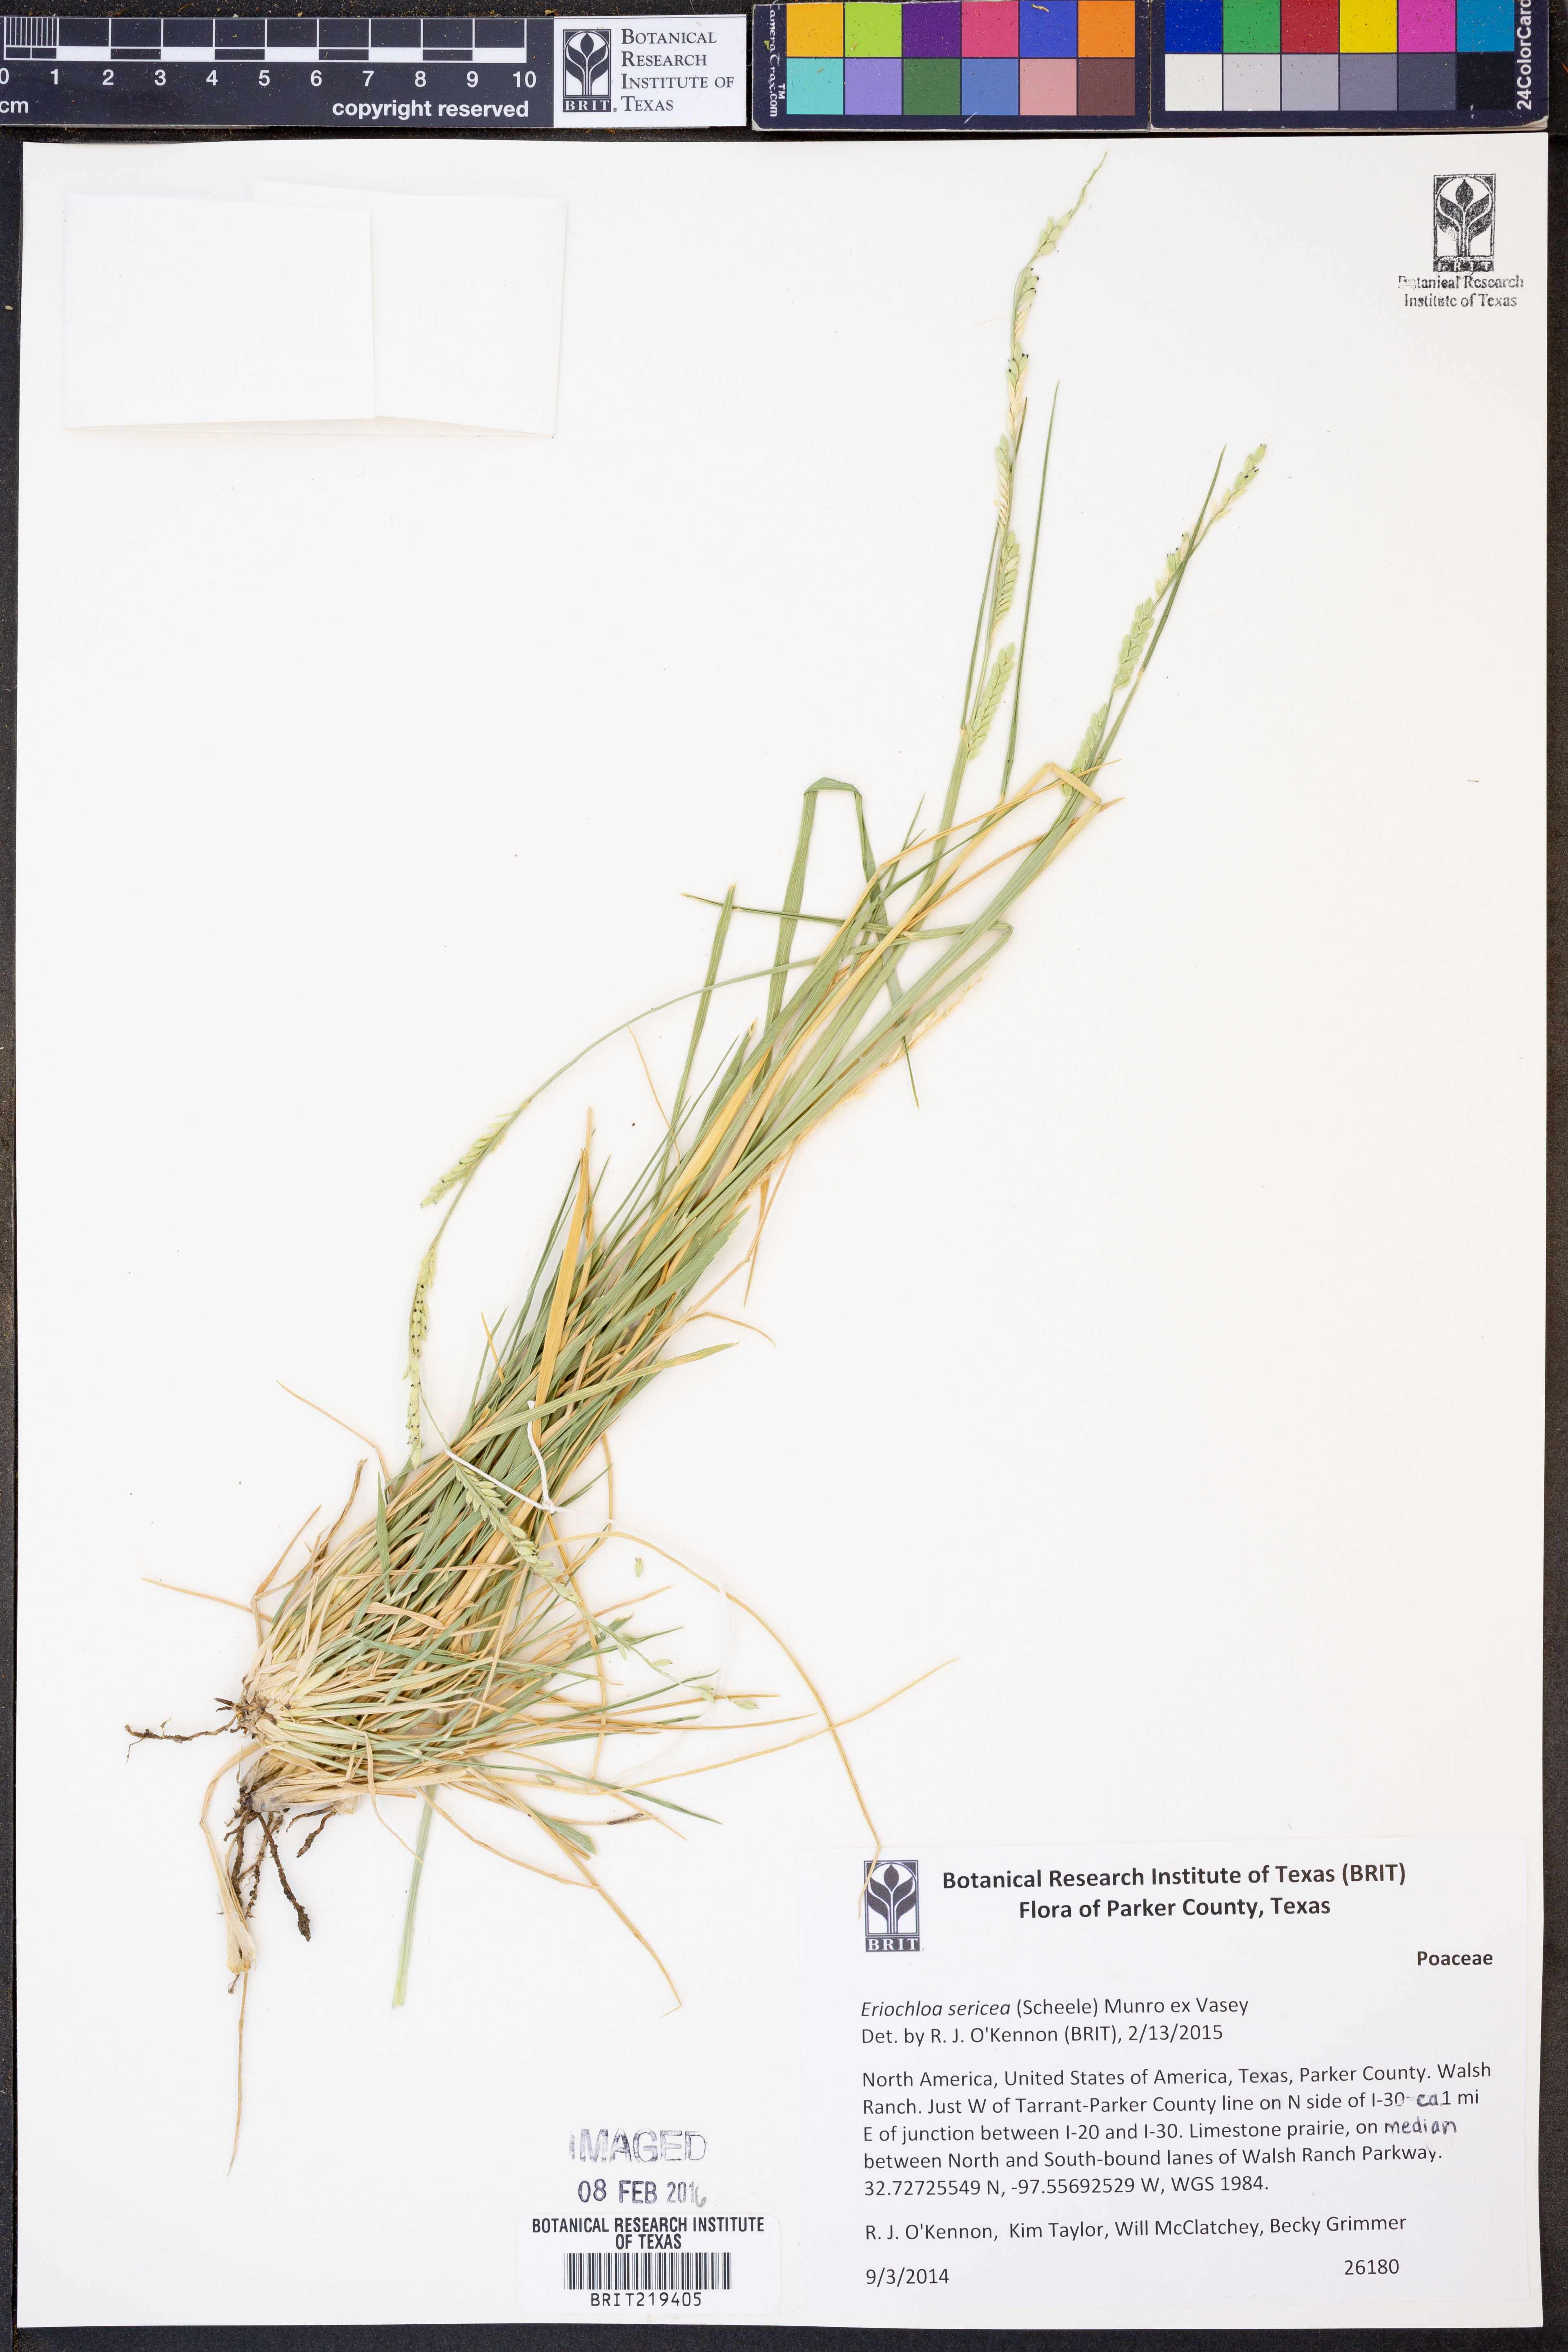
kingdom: Plantae
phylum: Tracheophyta
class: Liliopsida
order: Poales
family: Poaceae
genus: Eriochloa
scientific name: Eriochloa sericea
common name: Texas cup grass
